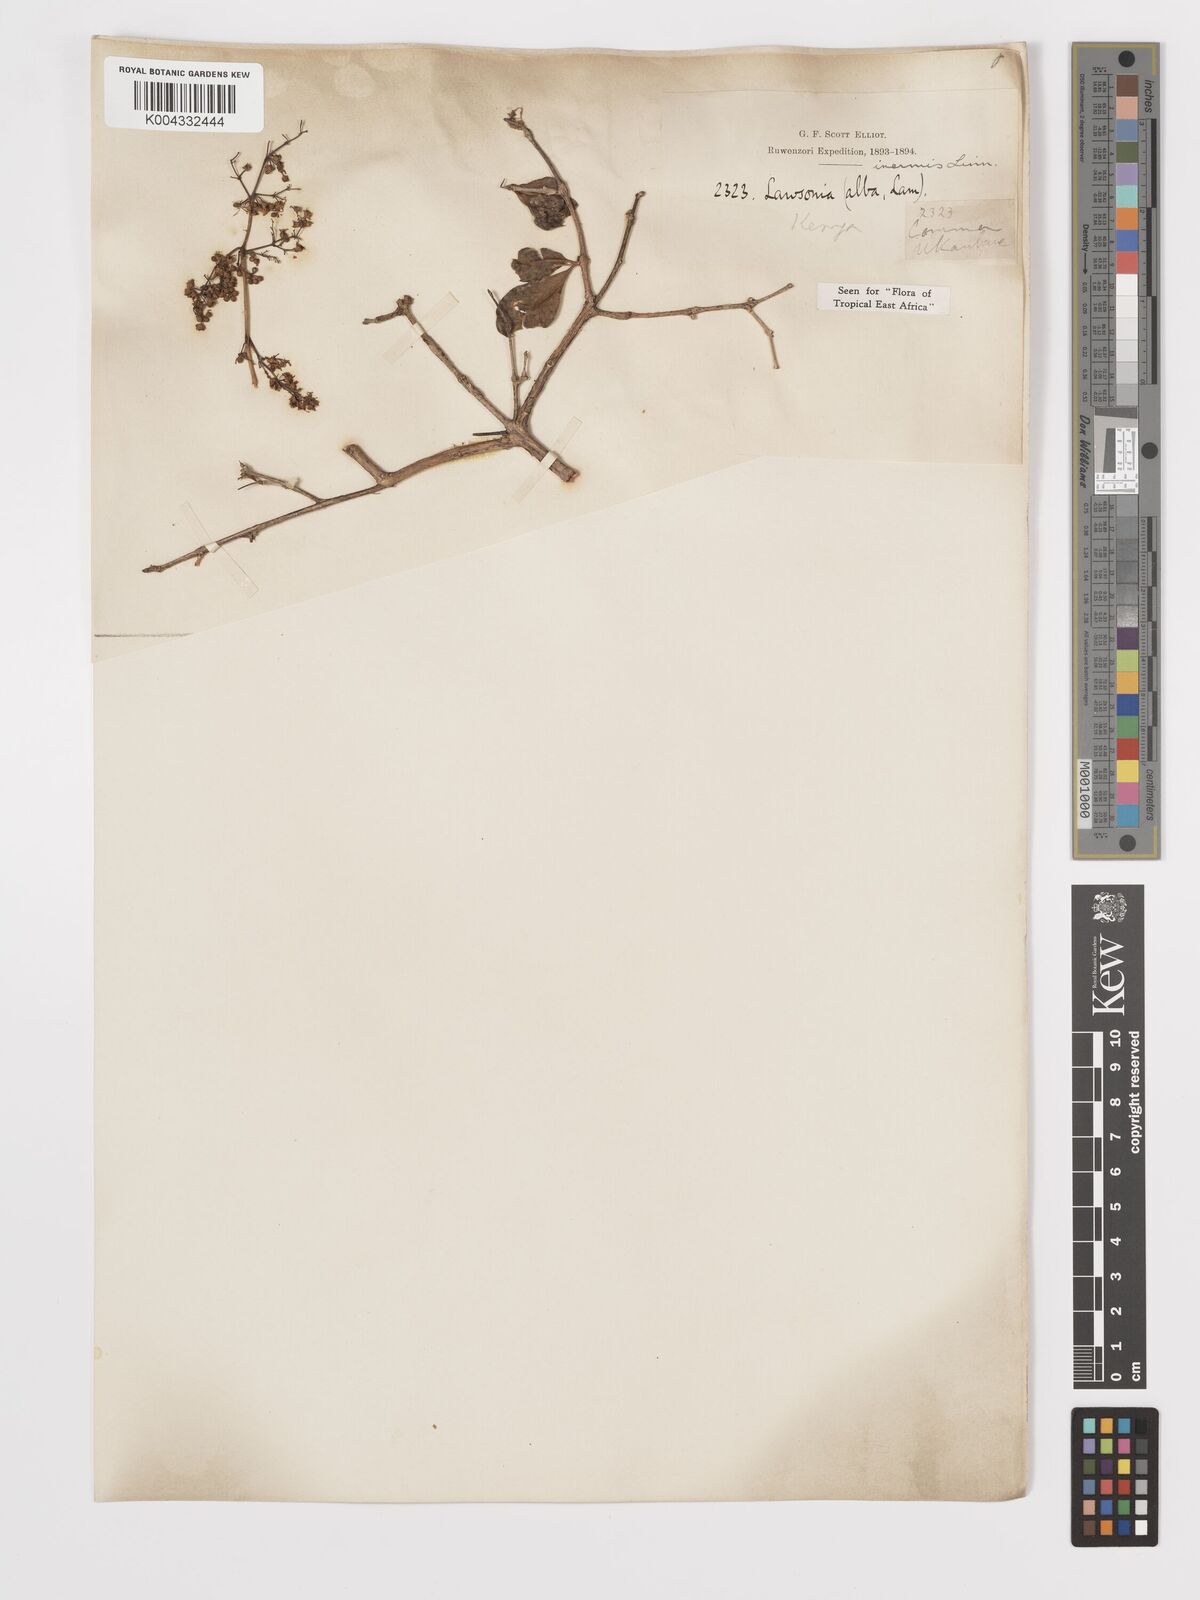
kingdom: Plantae
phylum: Tracheophyta
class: Magnoliopsida
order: Myrtales
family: Lythraceae
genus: Lawsonia
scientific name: Lawsonia inermis
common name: Henna
